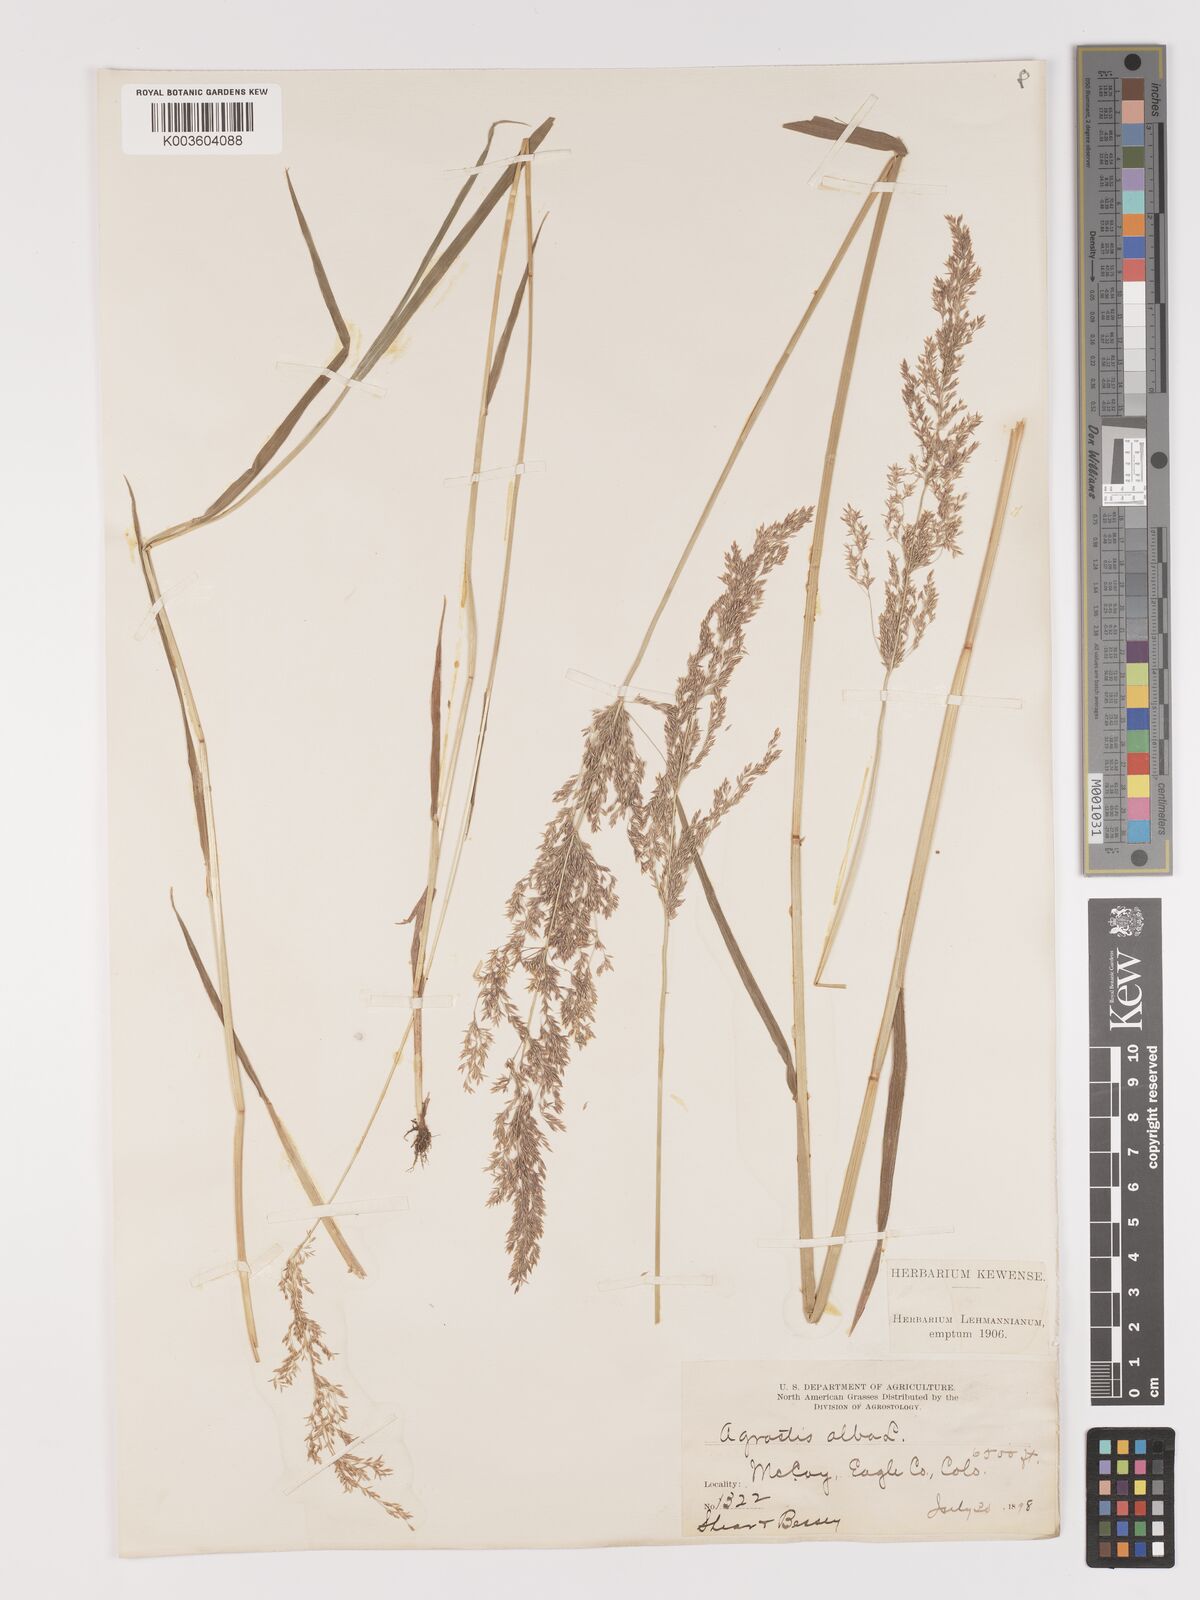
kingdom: Plantae
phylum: Tracheophyta
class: Liliopsida
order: Poales
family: Poaceae
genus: Agrostis
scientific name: Agrostis gigantea
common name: Black bent
